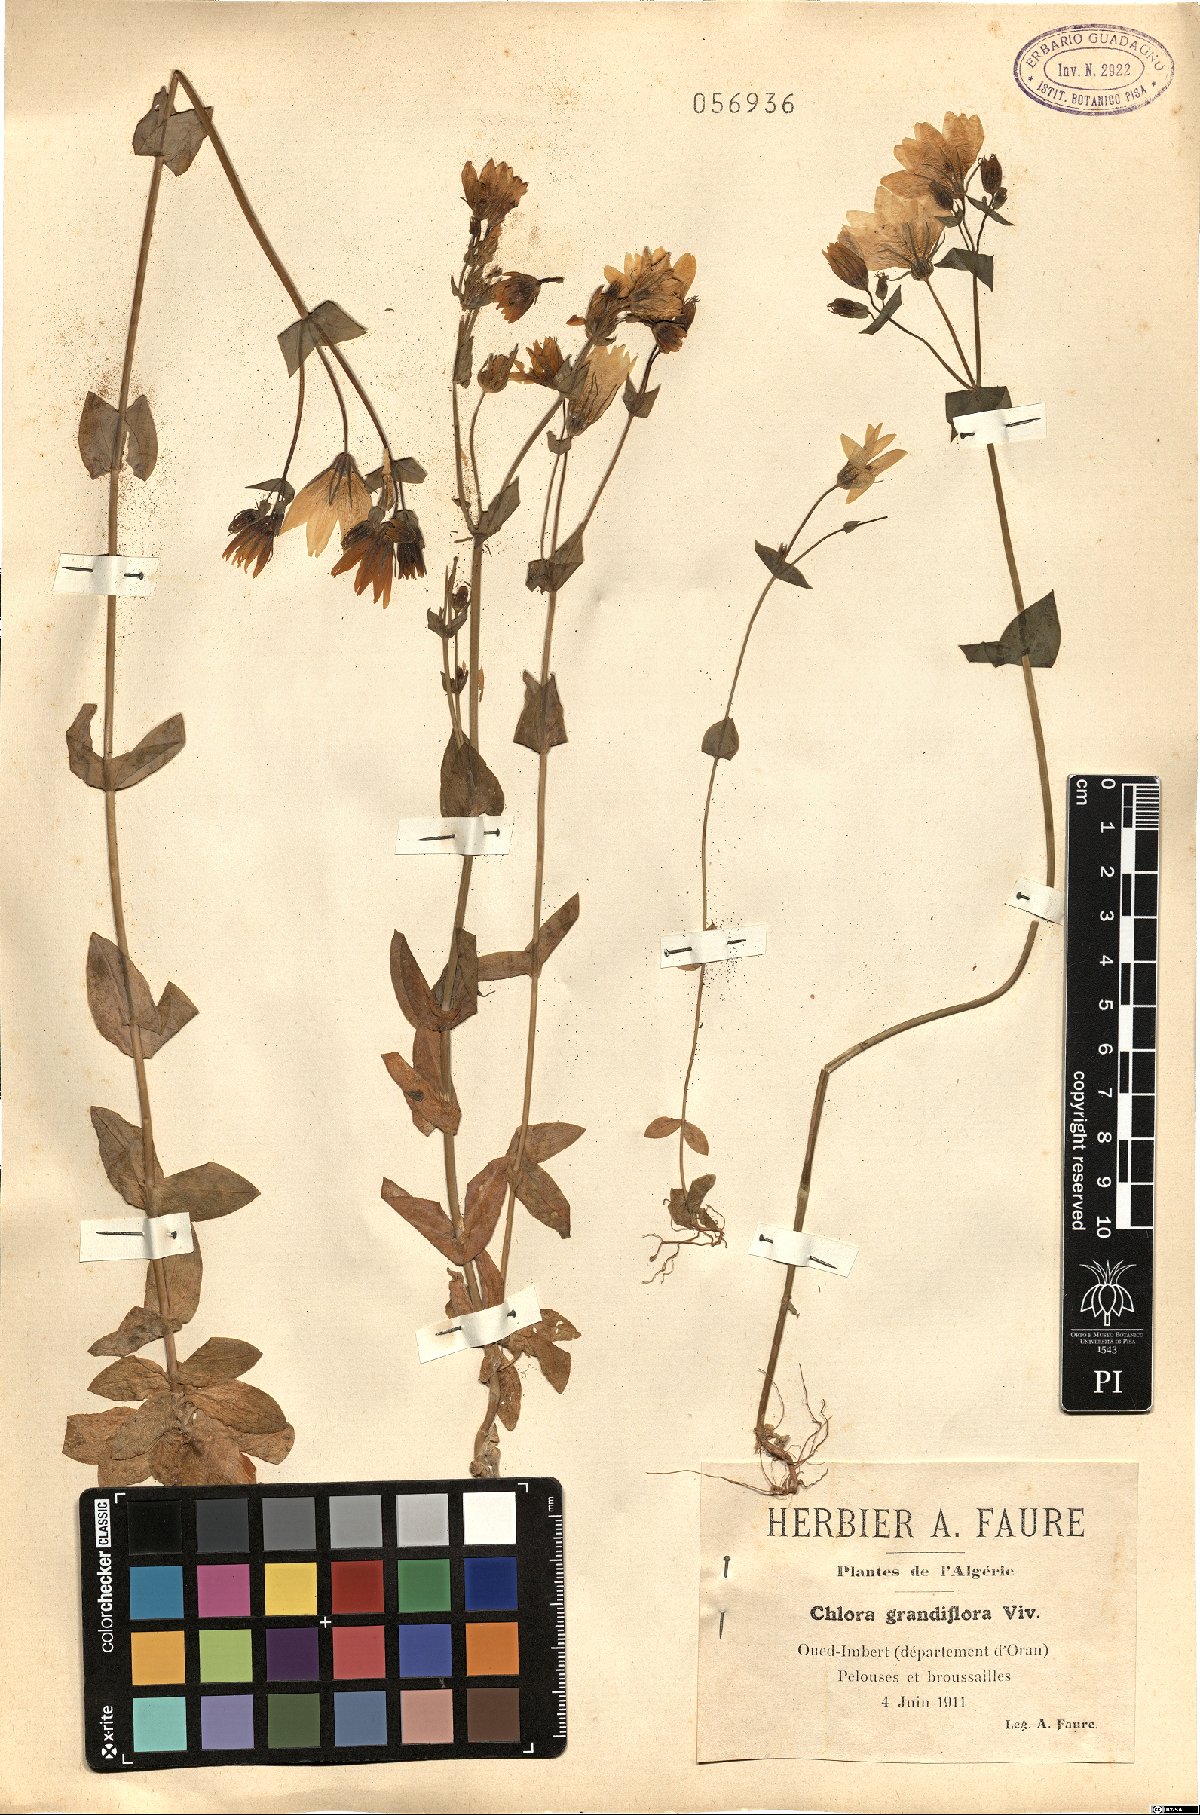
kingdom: Plantae
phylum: Tracheophyta
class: Liliopsida
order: Asparagales
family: Orchidaceae
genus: Chloraea
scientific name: Chloraea grandiflora
